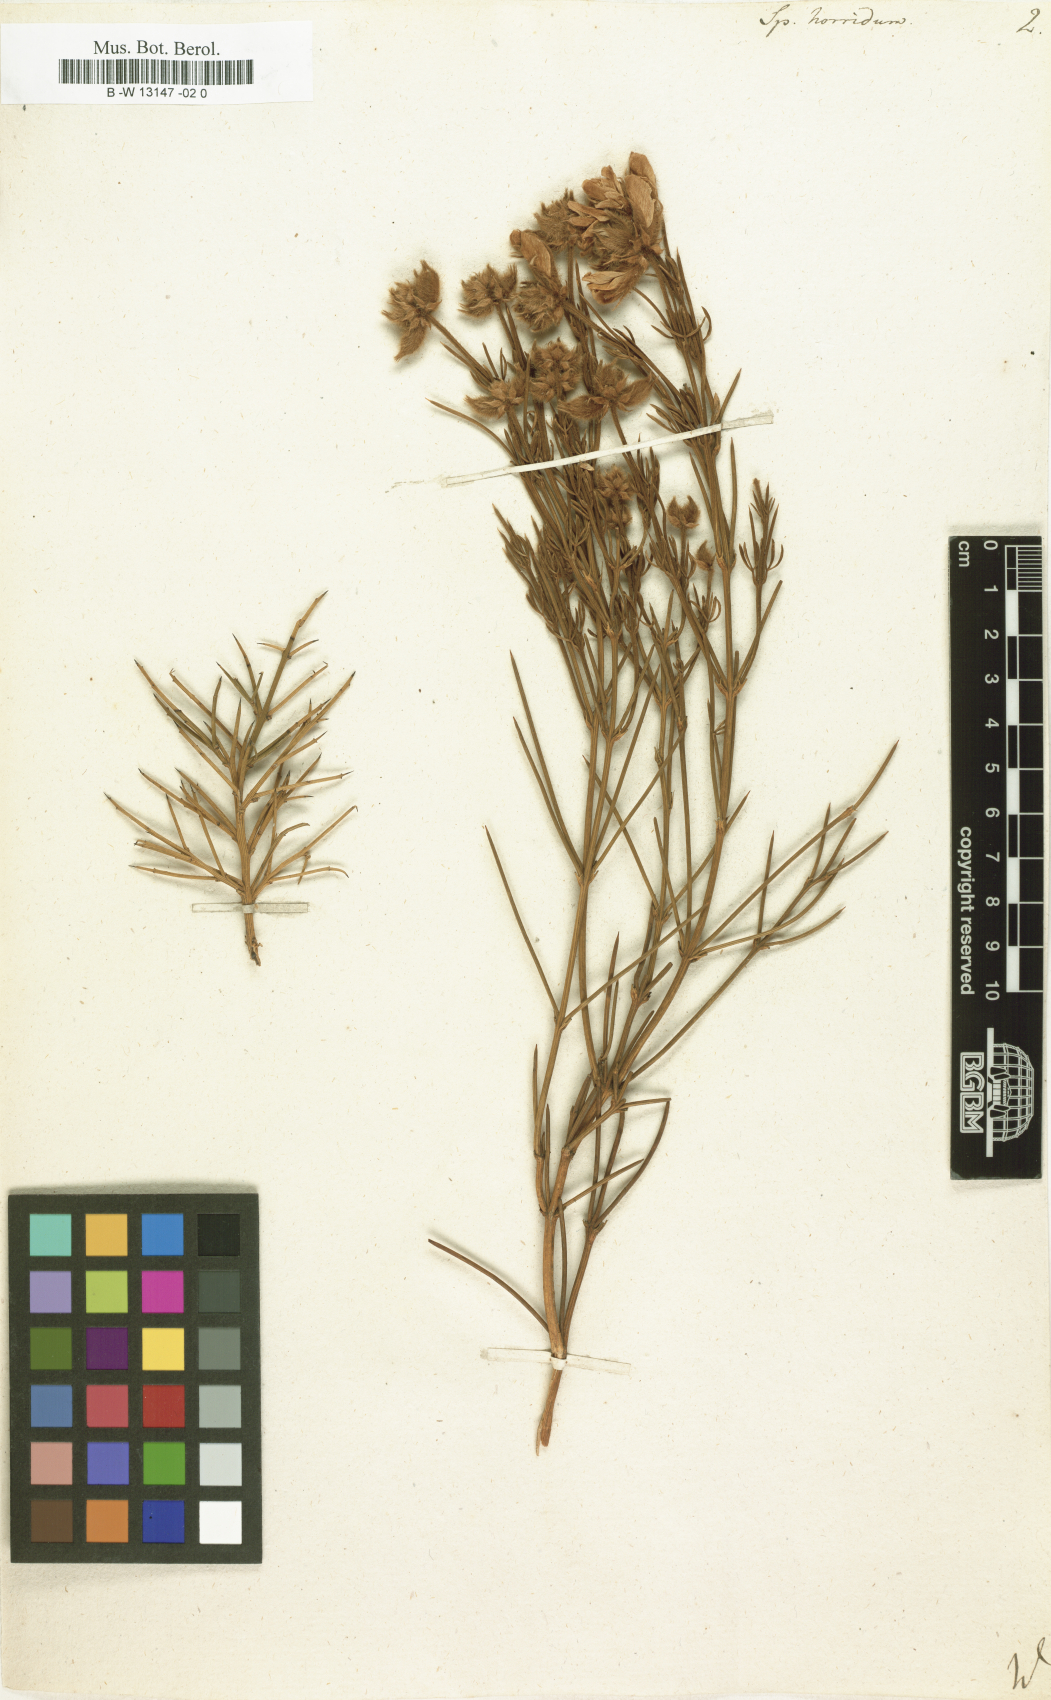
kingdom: Plantae
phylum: Tracheophyta
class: Magnoliopsida
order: Fabales
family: Fabaceae
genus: Echinospartum
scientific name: Echinospartum horridum
